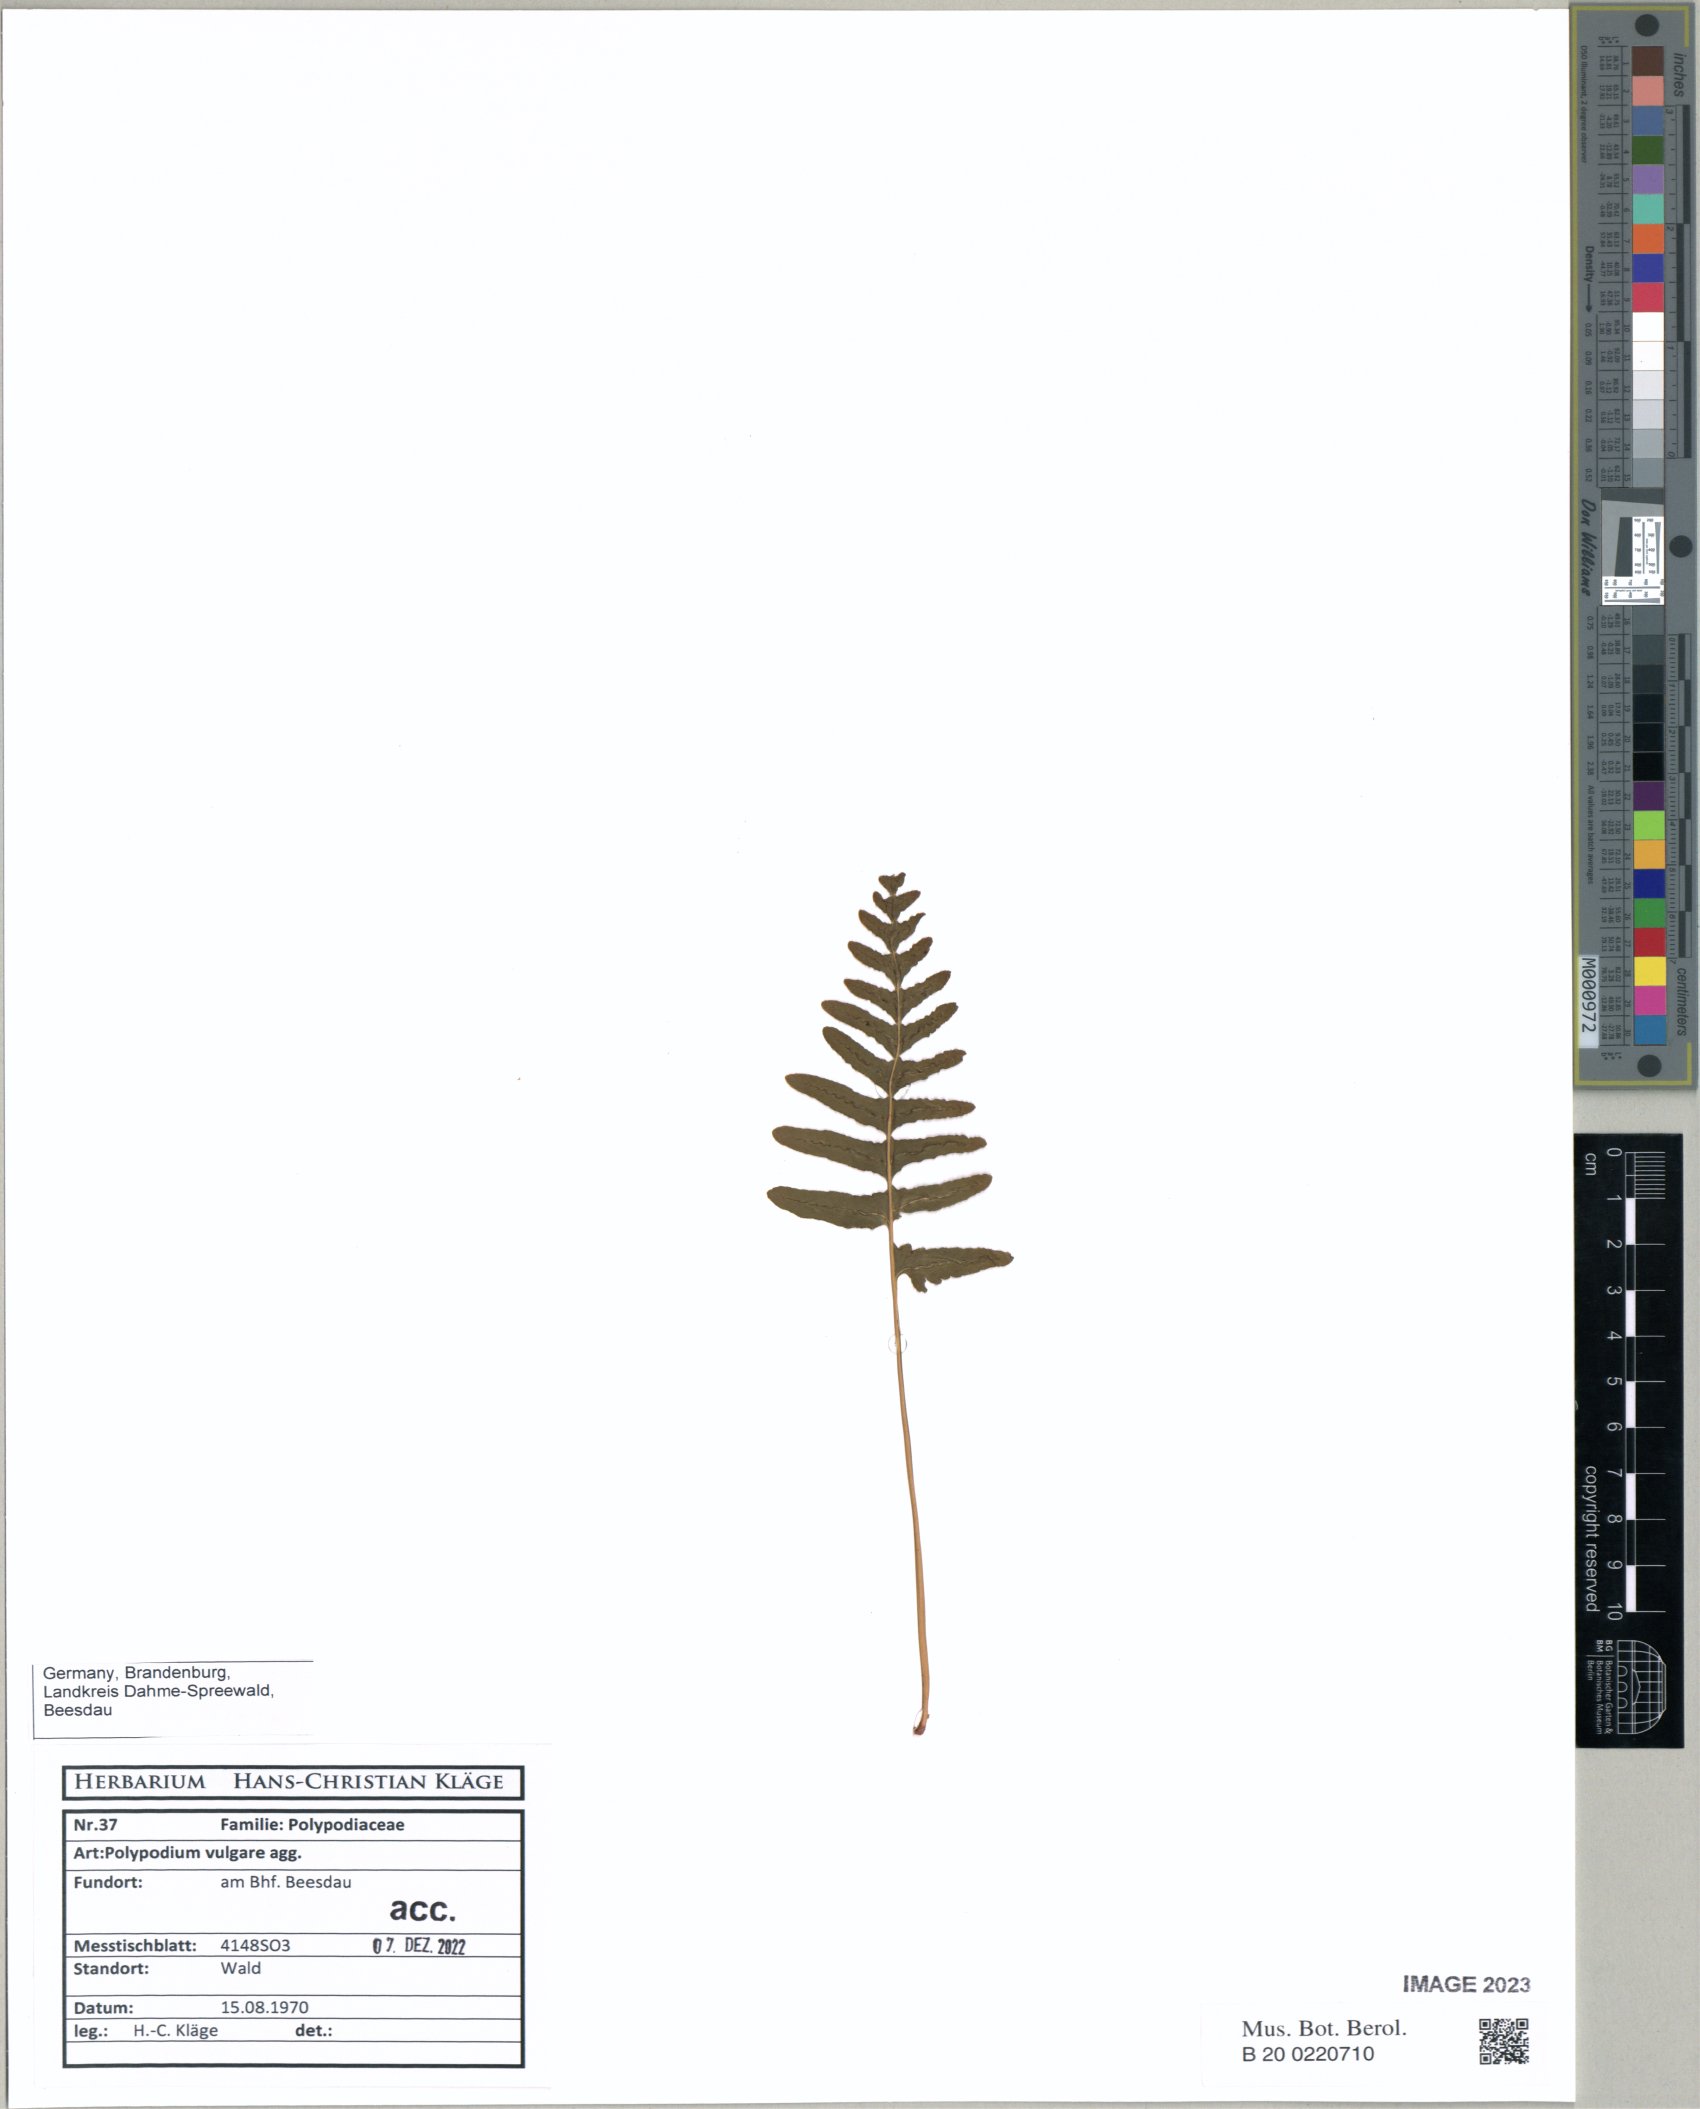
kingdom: Plantae
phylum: Tracheophyta
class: Polypodiopsida
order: Polypodiales
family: Polypodiaceae
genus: Polypodium
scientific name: Polypodium vulgare
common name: Common polypody
